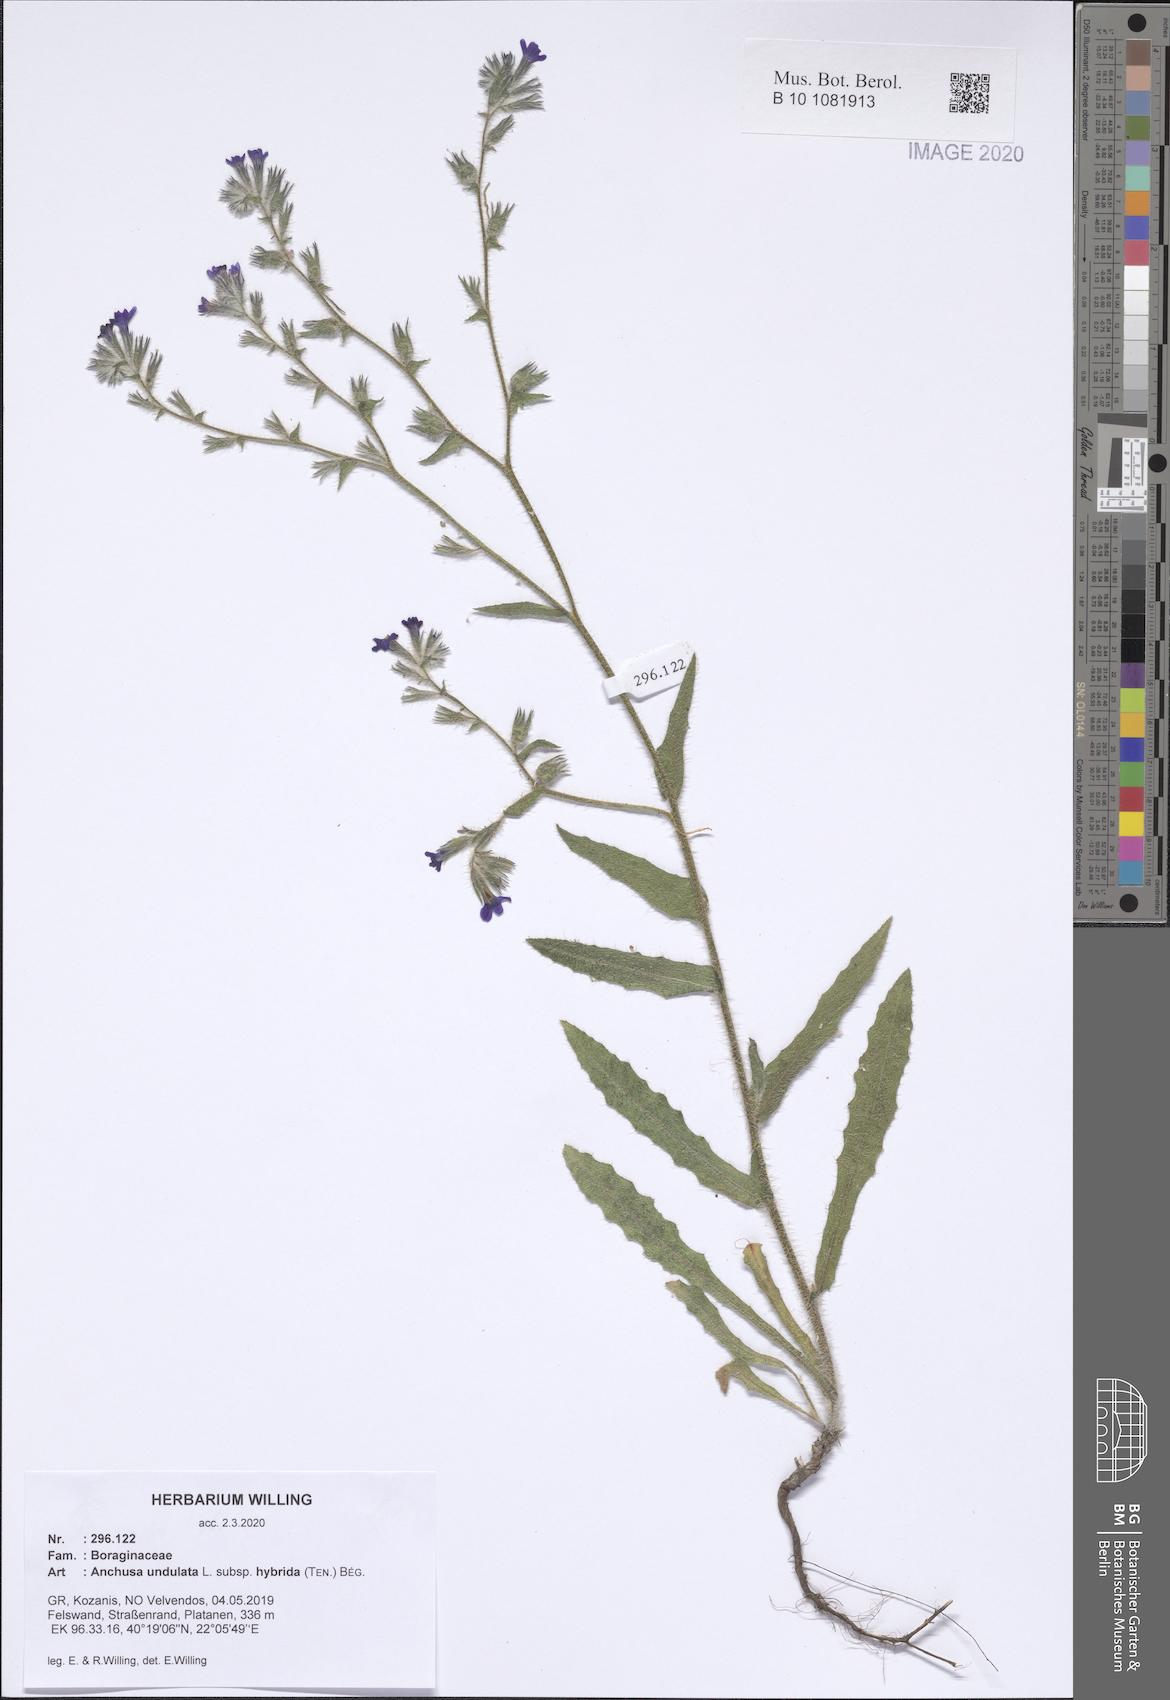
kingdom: Plantae
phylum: Tracheophyta
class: Magnoliopsida
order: Boraginales
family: Boraginaceae
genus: Anchusa
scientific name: Anchusa undulata
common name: Undulate alkanet
